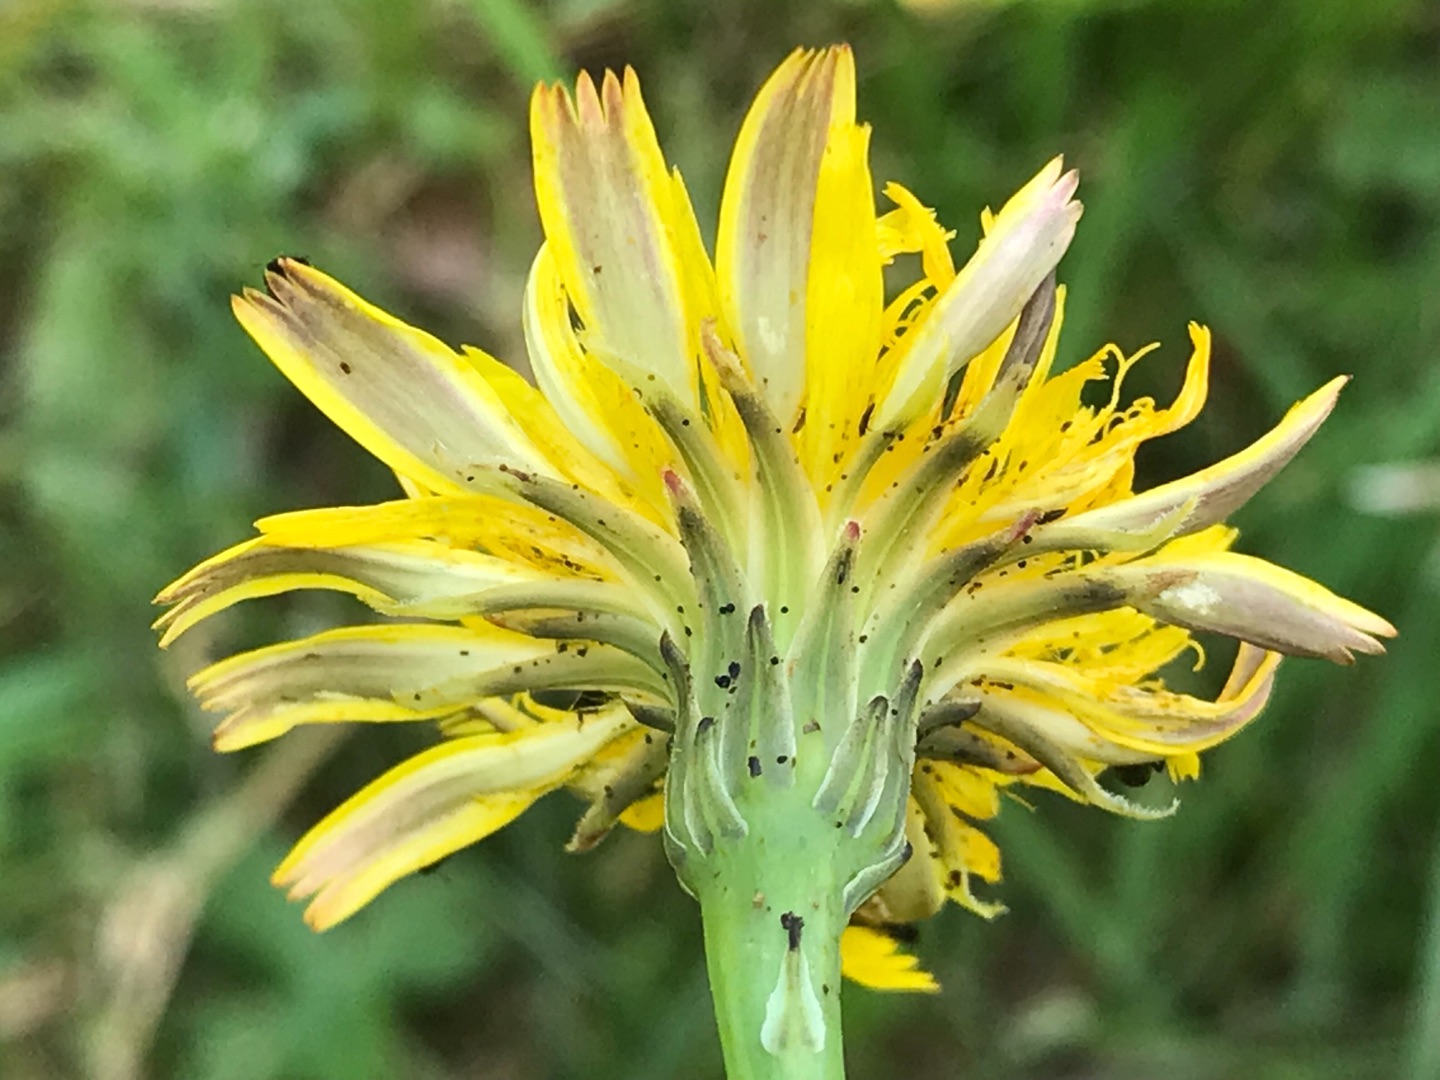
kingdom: Plantae
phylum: Tracheophyta
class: Magnoliopsida
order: Asterales
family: Asteraceae
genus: Hypochaeris
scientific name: Hypochaeris radicata
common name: Almindelig kongepen
